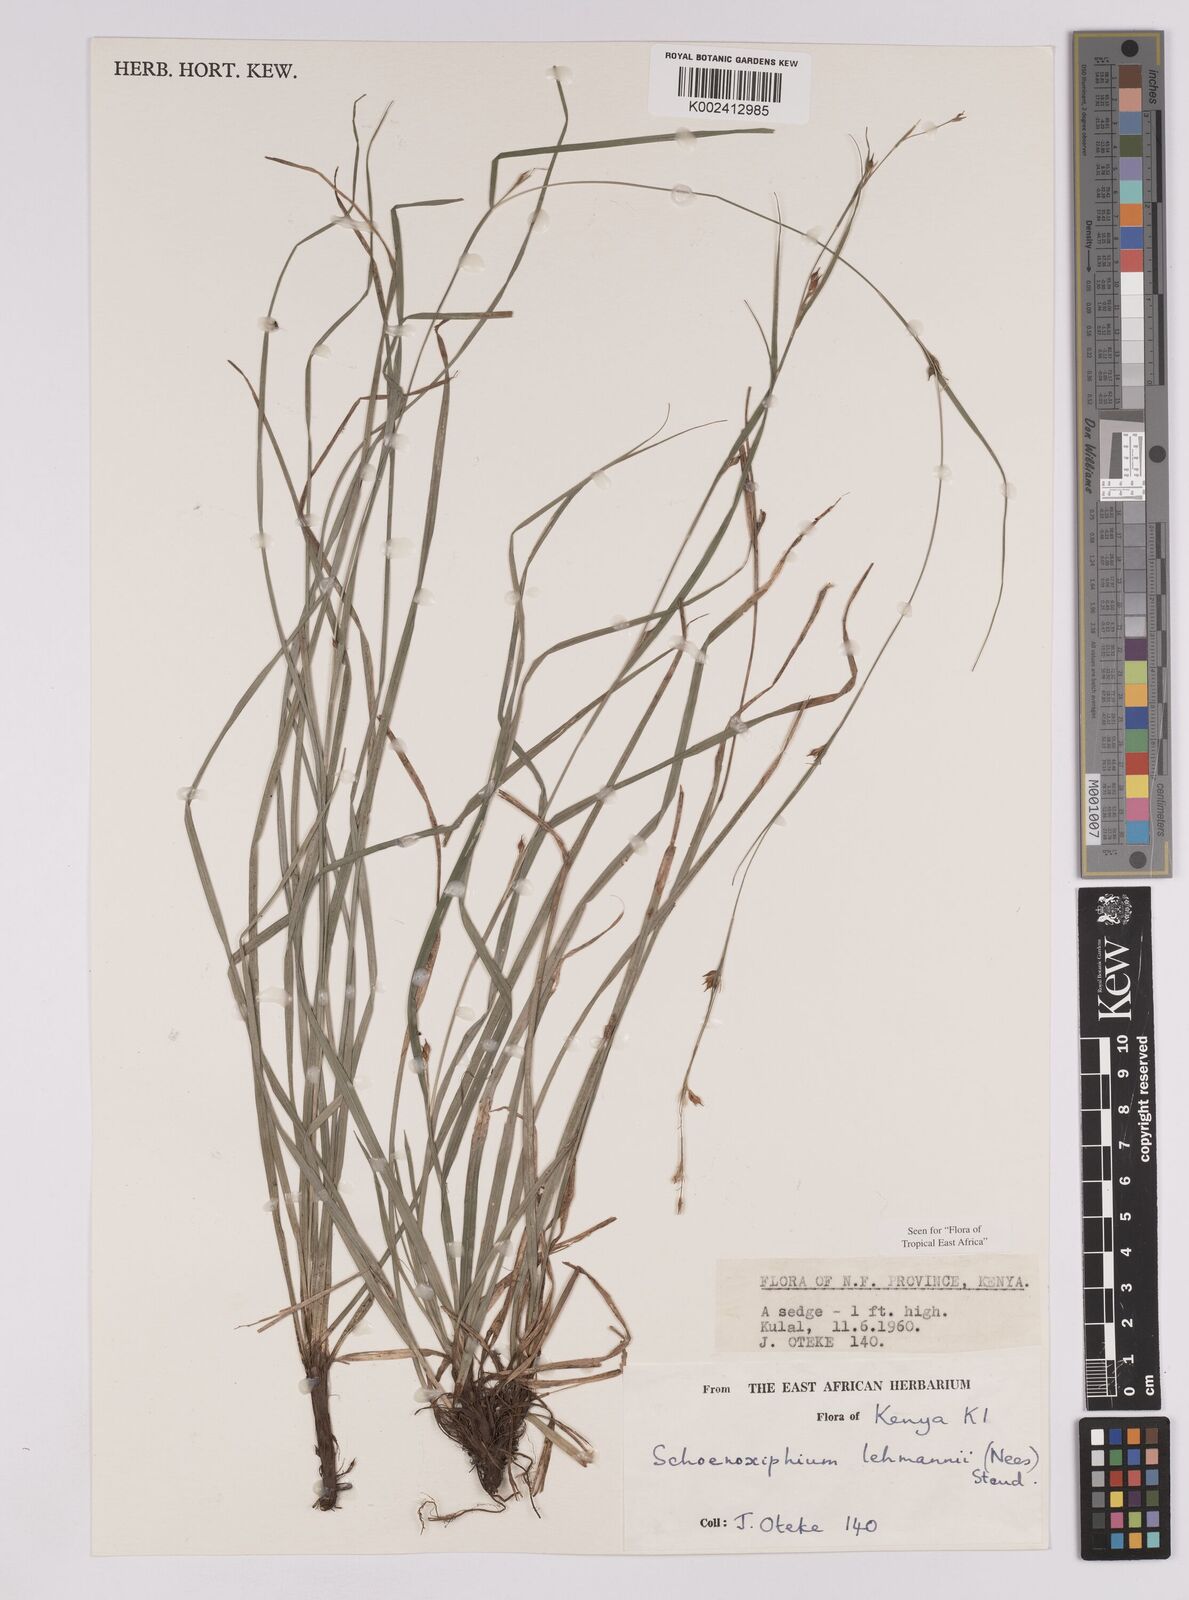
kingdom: Plantae
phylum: Tracheophyta
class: Liliopsida
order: Poales
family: Cyperaceae
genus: Carex
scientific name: Carex uhligii
